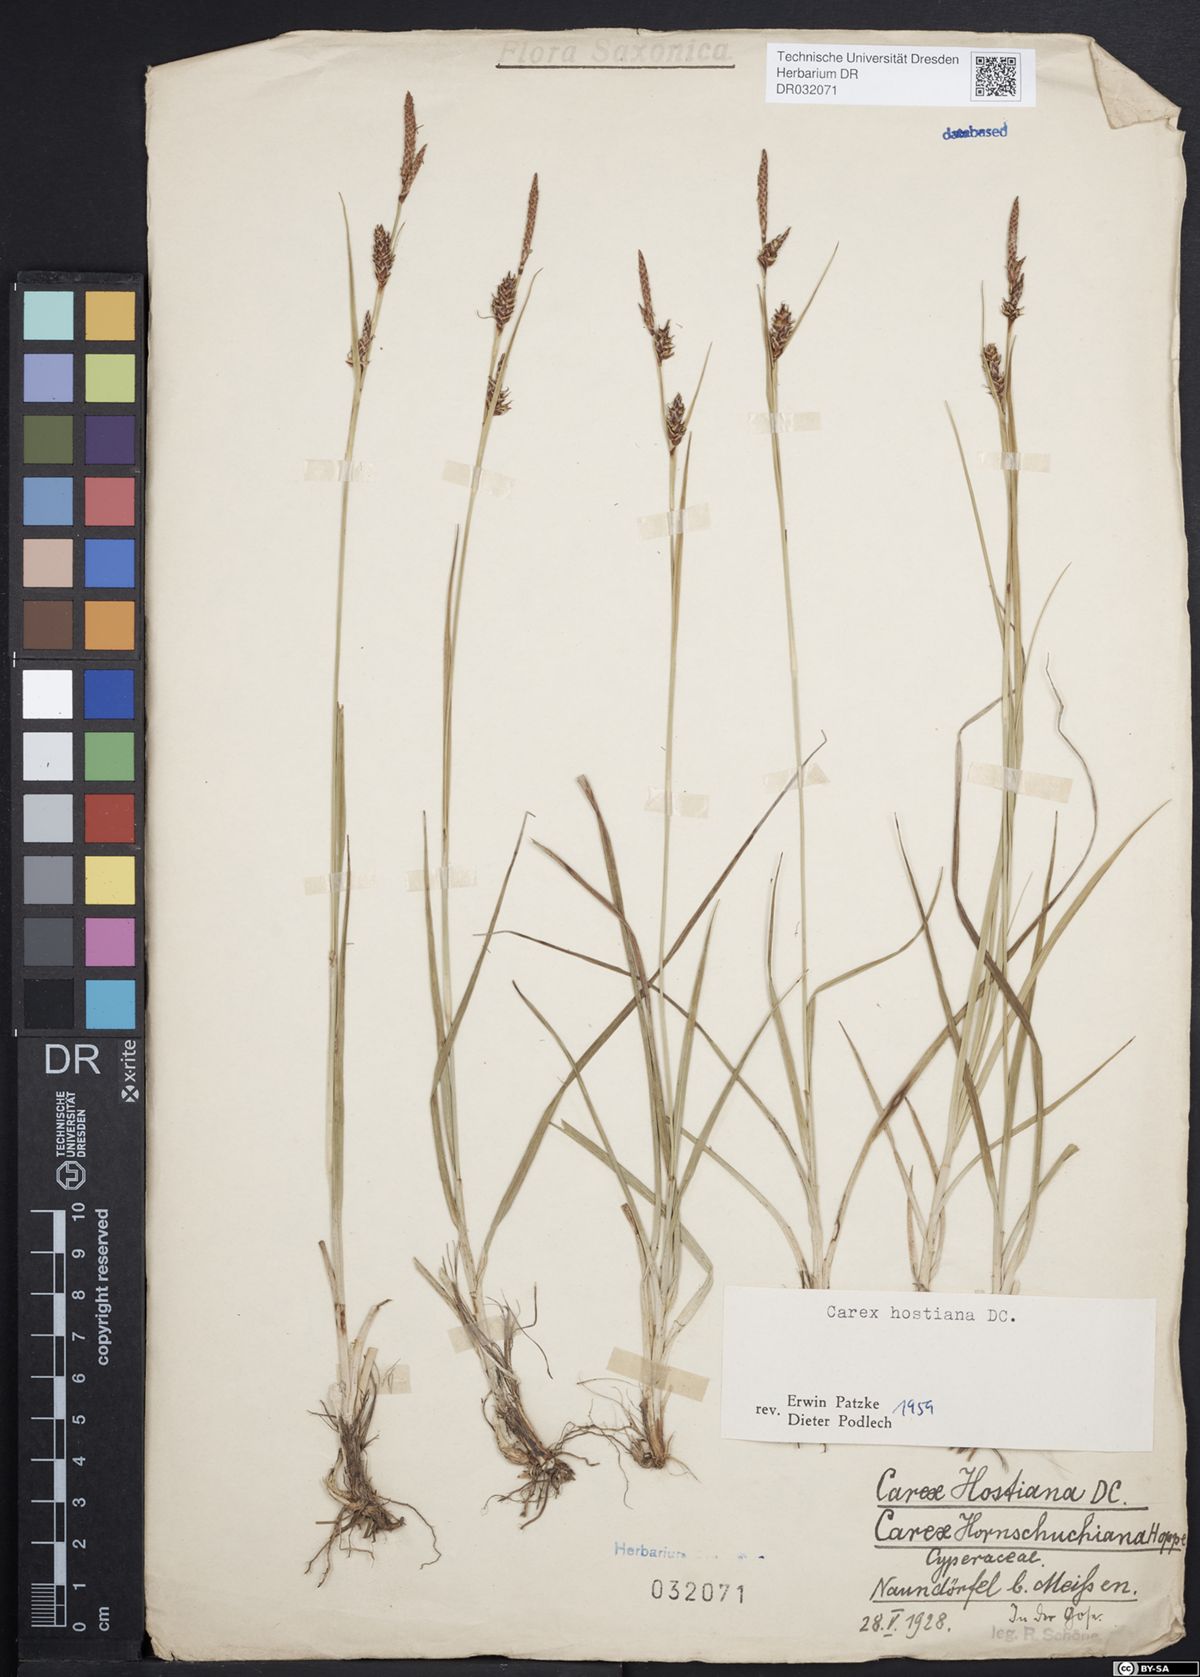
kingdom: Plantae
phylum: Tracheophyta
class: Liliopsida
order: Poales
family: Cyperaceae
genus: Carex
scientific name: Carex hostiana
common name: Tawny sedge
